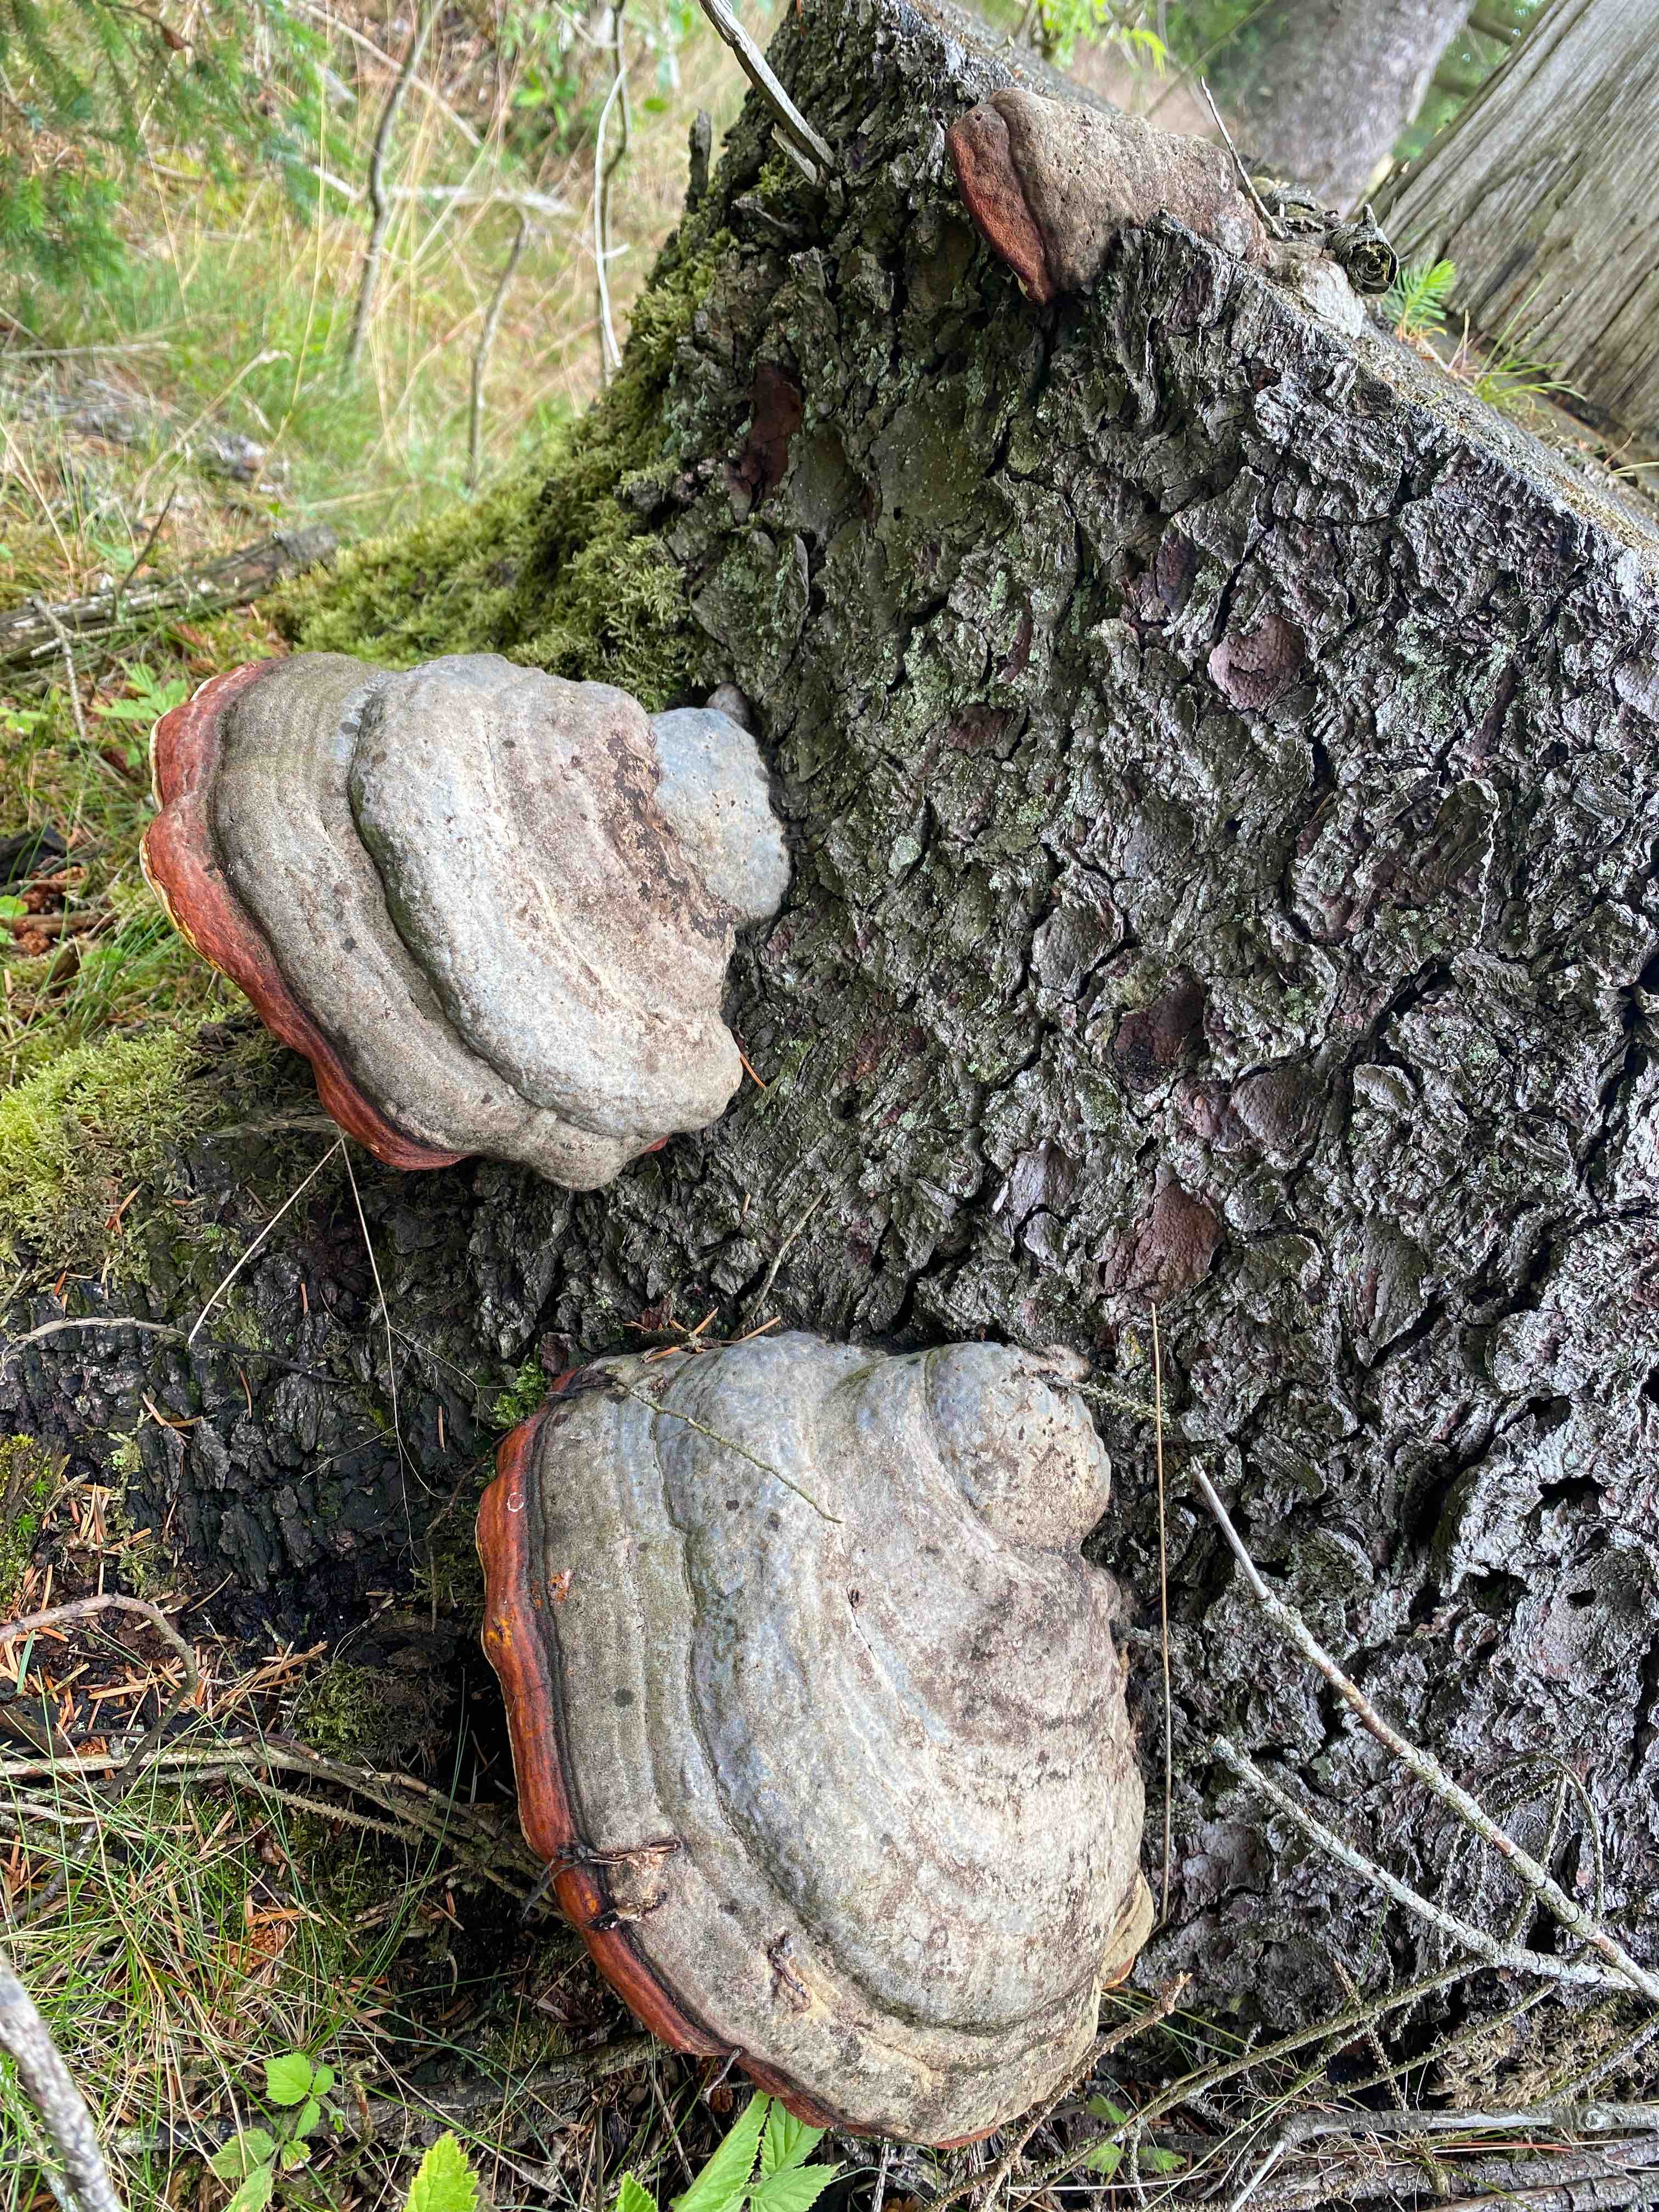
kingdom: Fungi
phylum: Basidiomycota
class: Agaricomycetes
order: Polyporales
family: Fomitopsidaceae
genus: Fomitopsis
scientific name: Fomitopsis pinicola
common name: randbæltet hovporesvamp
